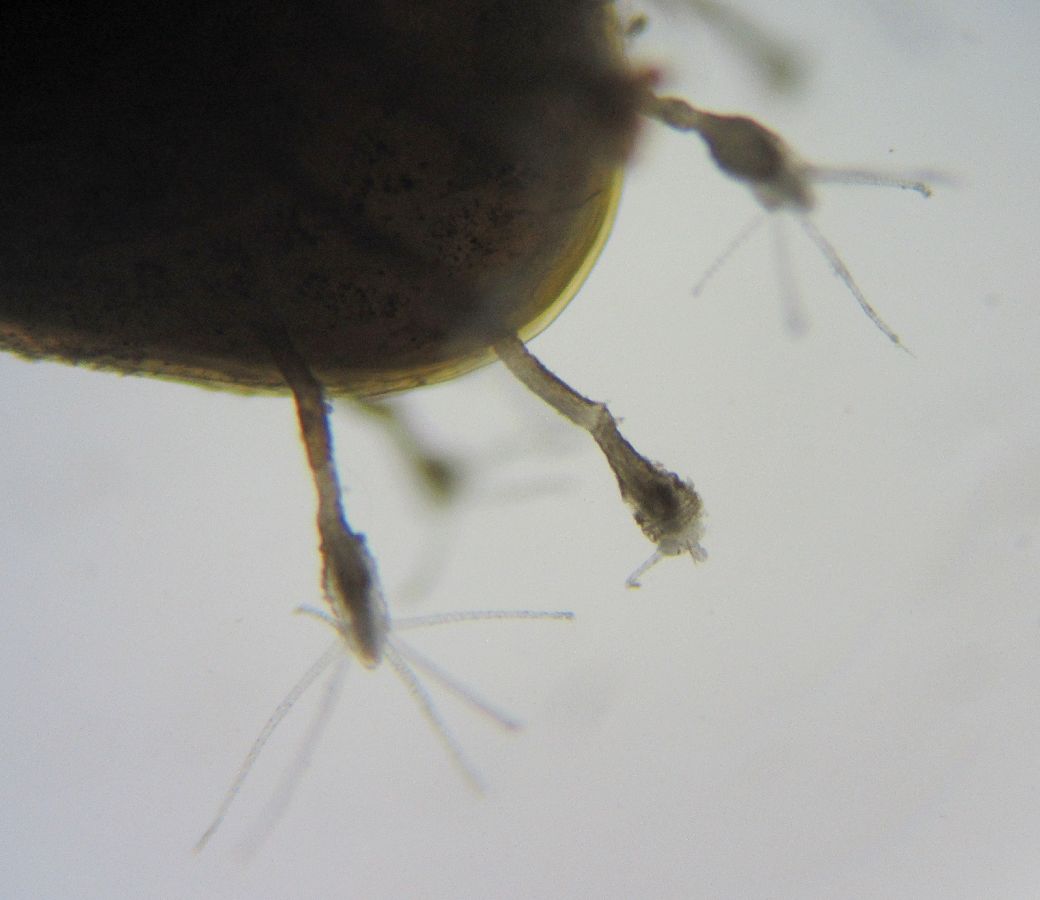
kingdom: Animalia
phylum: Mollusca
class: Bivalvia
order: Nuculanida
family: Yoldiidae
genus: Portlandia
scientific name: Portlandia arctica
